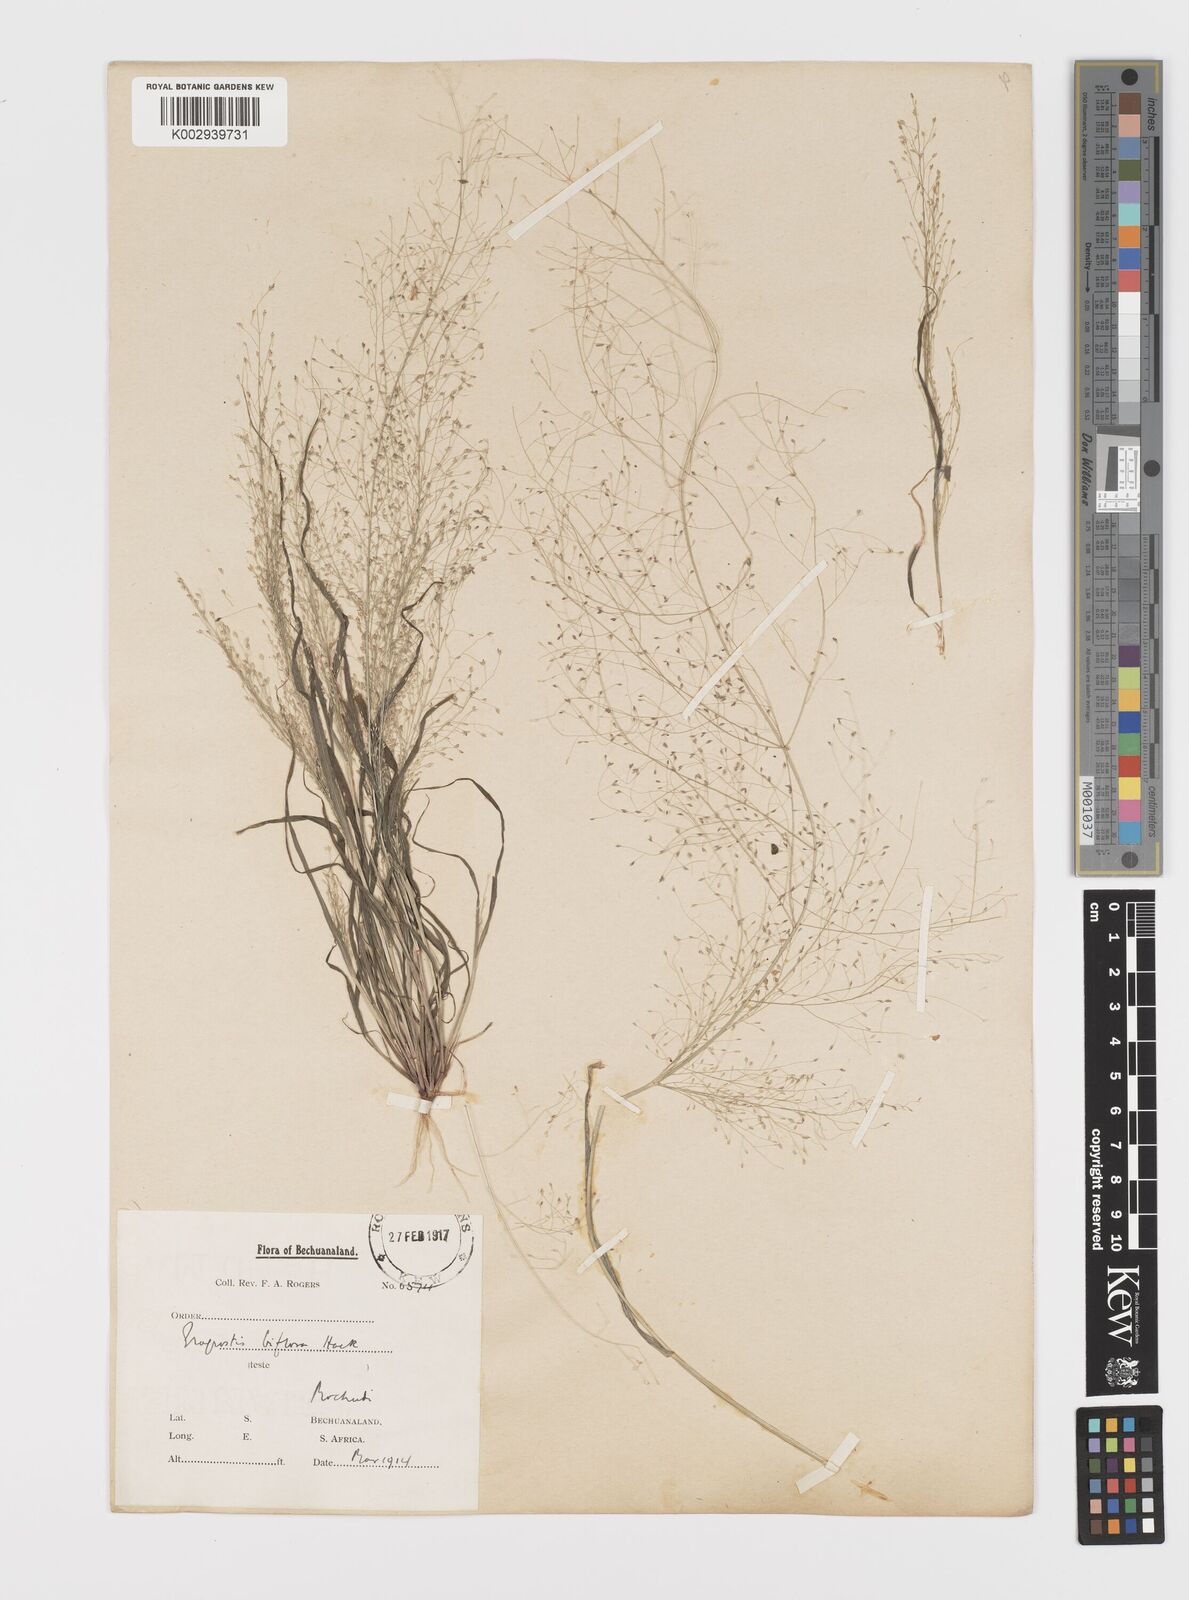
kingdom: Plantae
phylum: Tracheophyta
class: Liliopsida
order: Poales
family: Poaceae
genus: Eragrostis
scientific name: Eragrostis biflora
